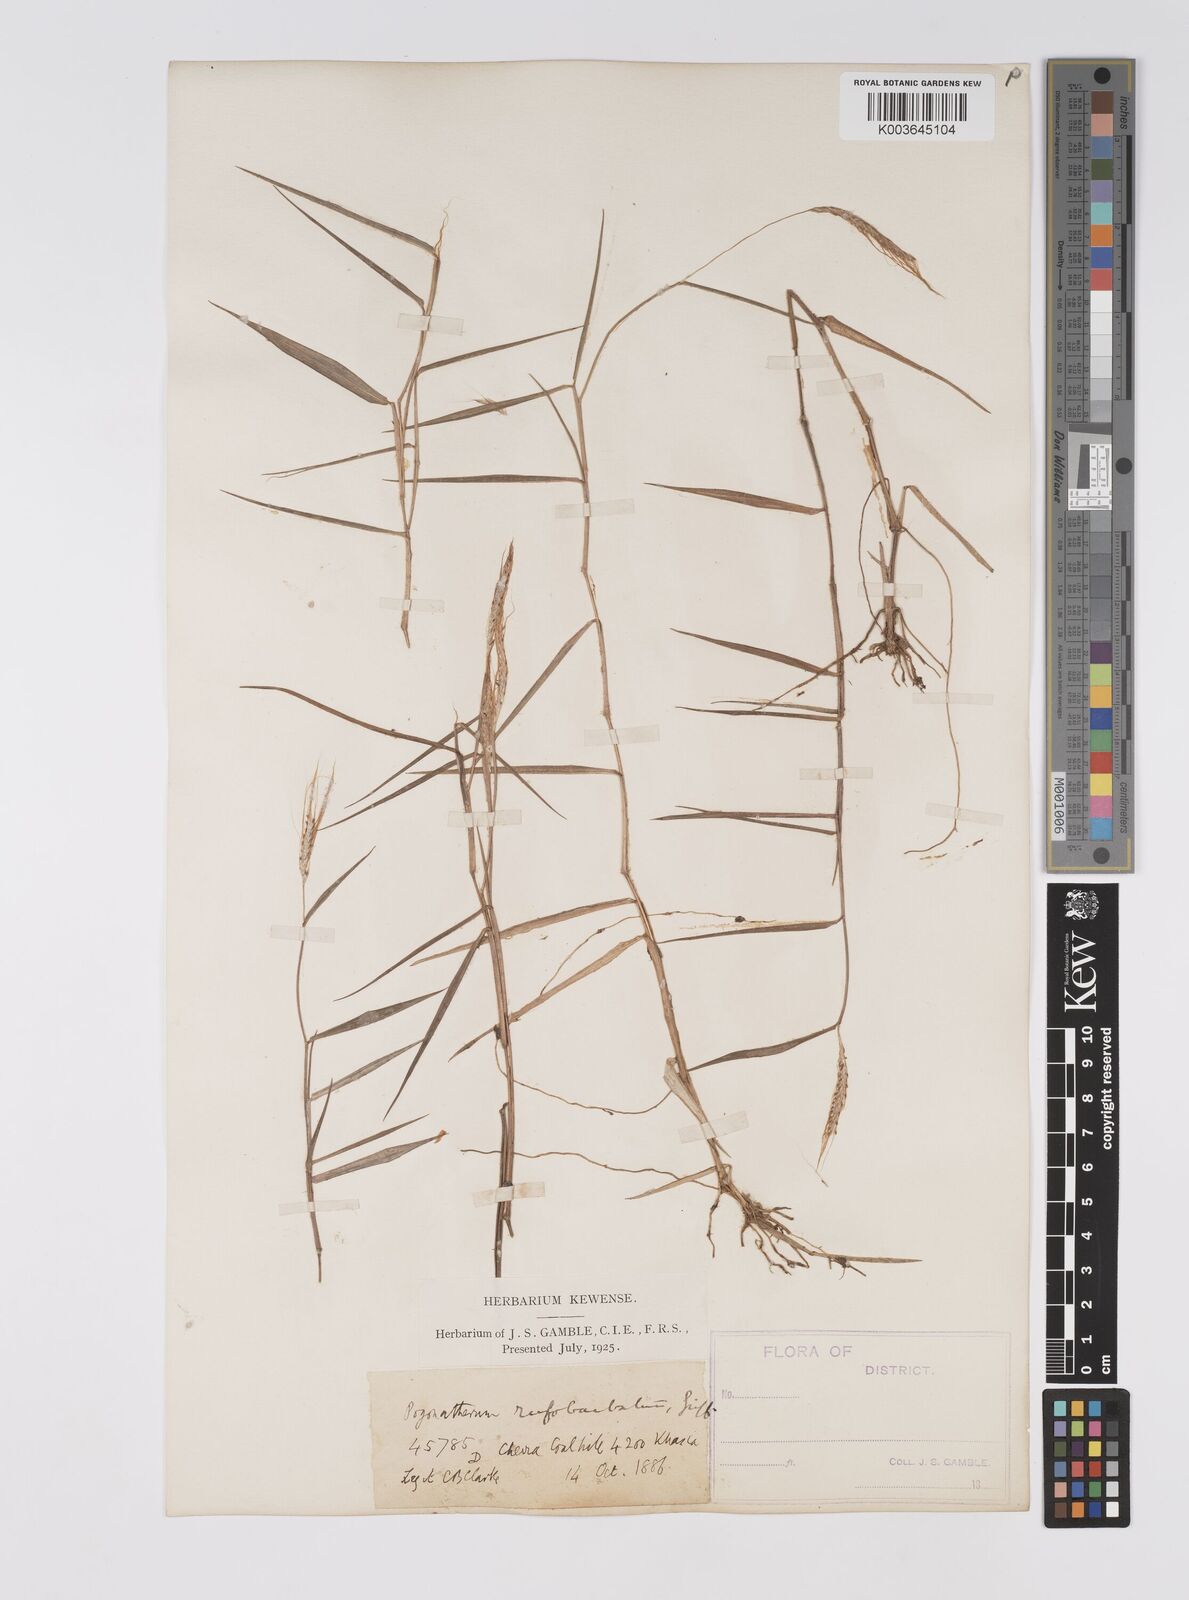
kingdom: Plantae
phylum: Tracheophyta
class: Liliopsida
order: Poales
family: Poaceae
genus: Pogonatherum
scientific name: Pogonatherum rufobarbatum
